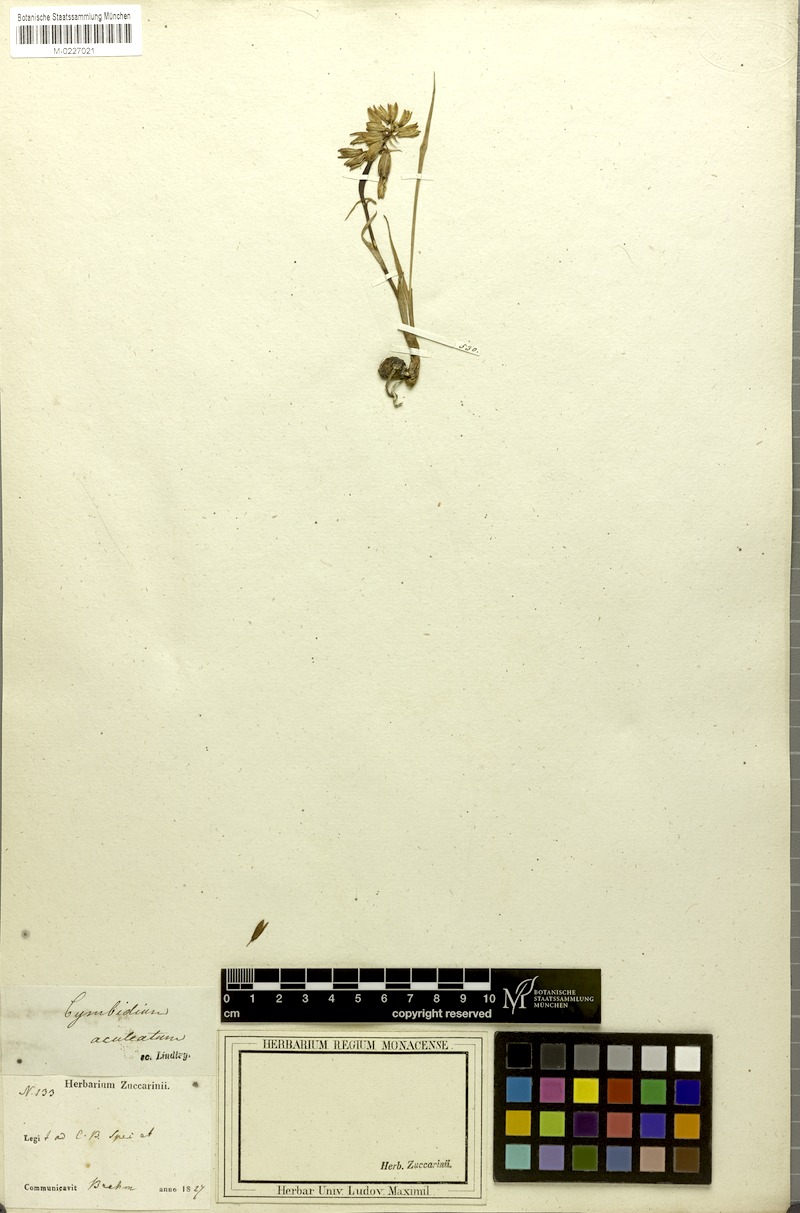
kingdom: Plantae
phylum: Tracheophyta
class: Liliopsida
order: Asparagales
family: Orchidaceae
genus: Eulophia
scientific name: Eulophia aculeata
